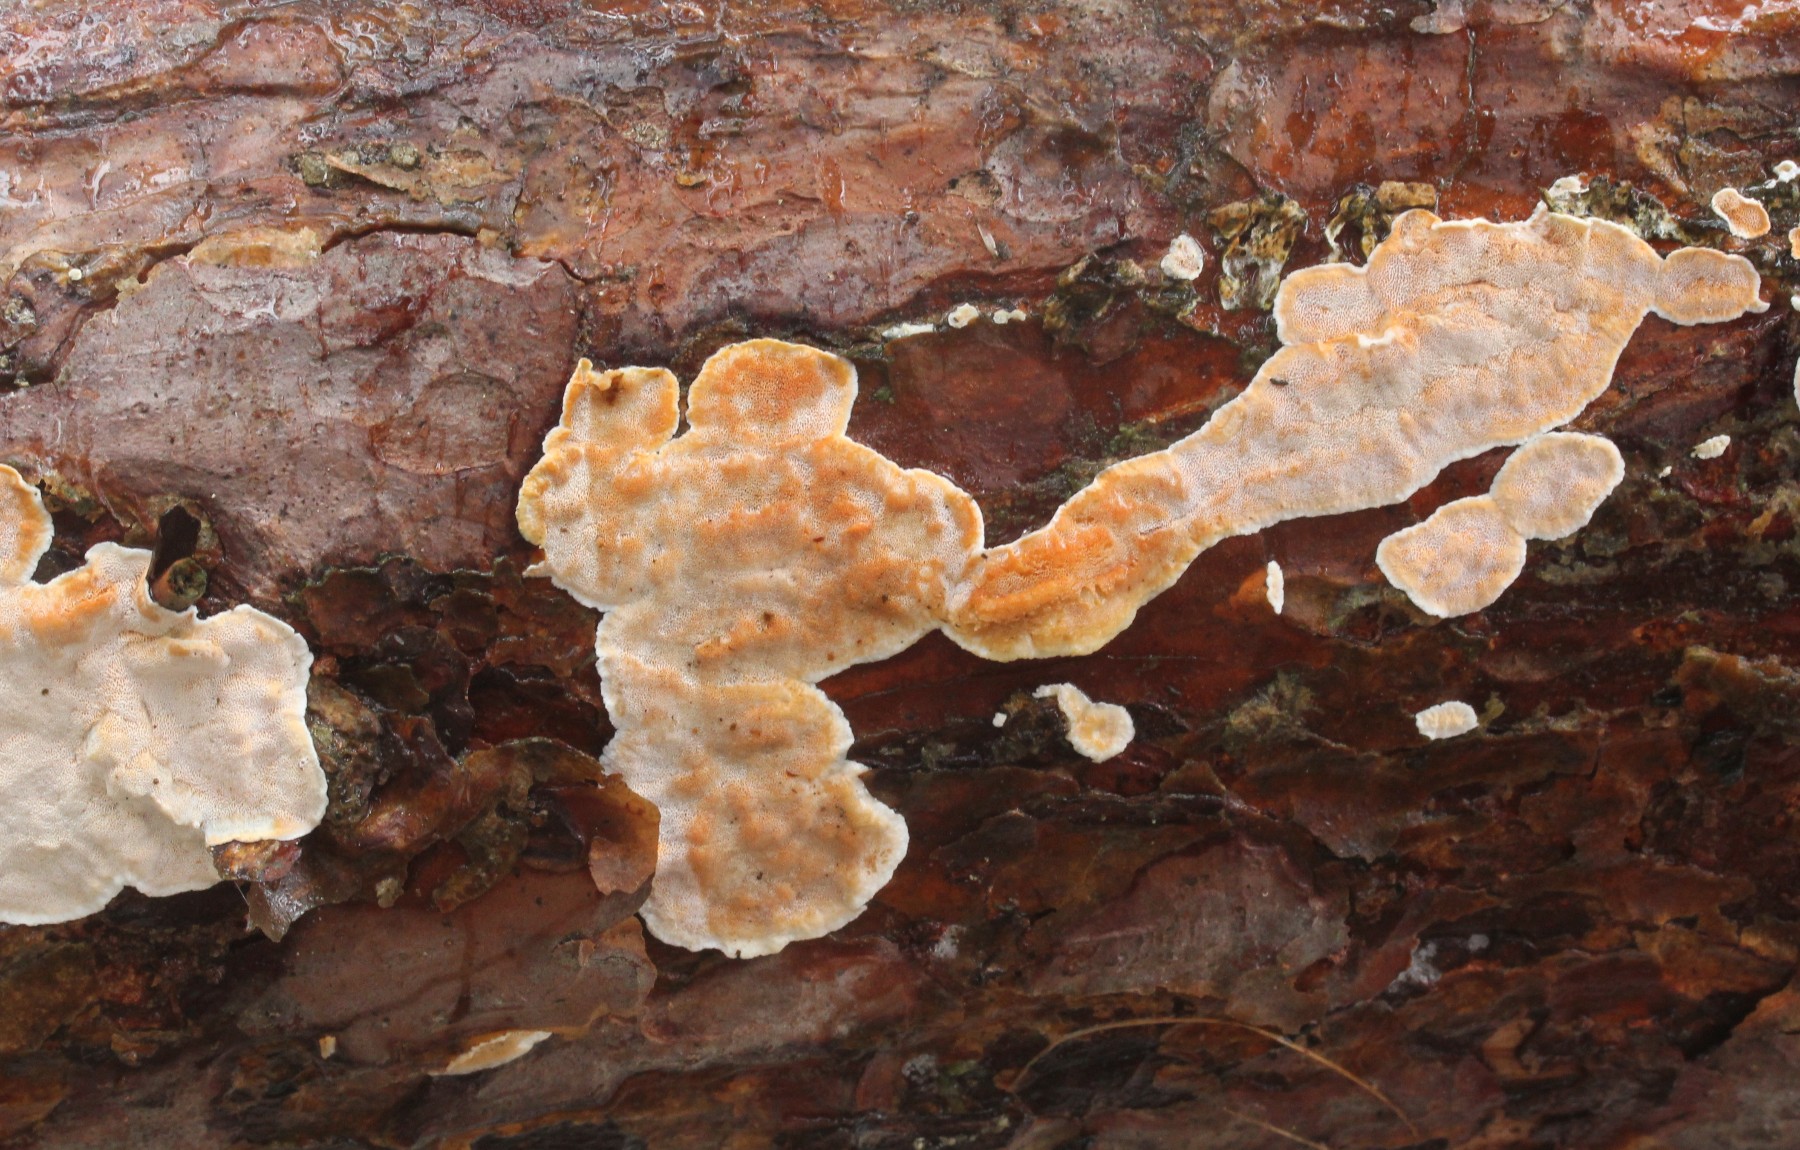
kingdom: Fungi
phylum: Basidiomycota
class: Agaricomycetes
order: Polyporales
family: Incrustoporiaceae
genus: Skeletocutis
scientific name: Skeletocutis amorpha
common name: orange krystalporesvamp
